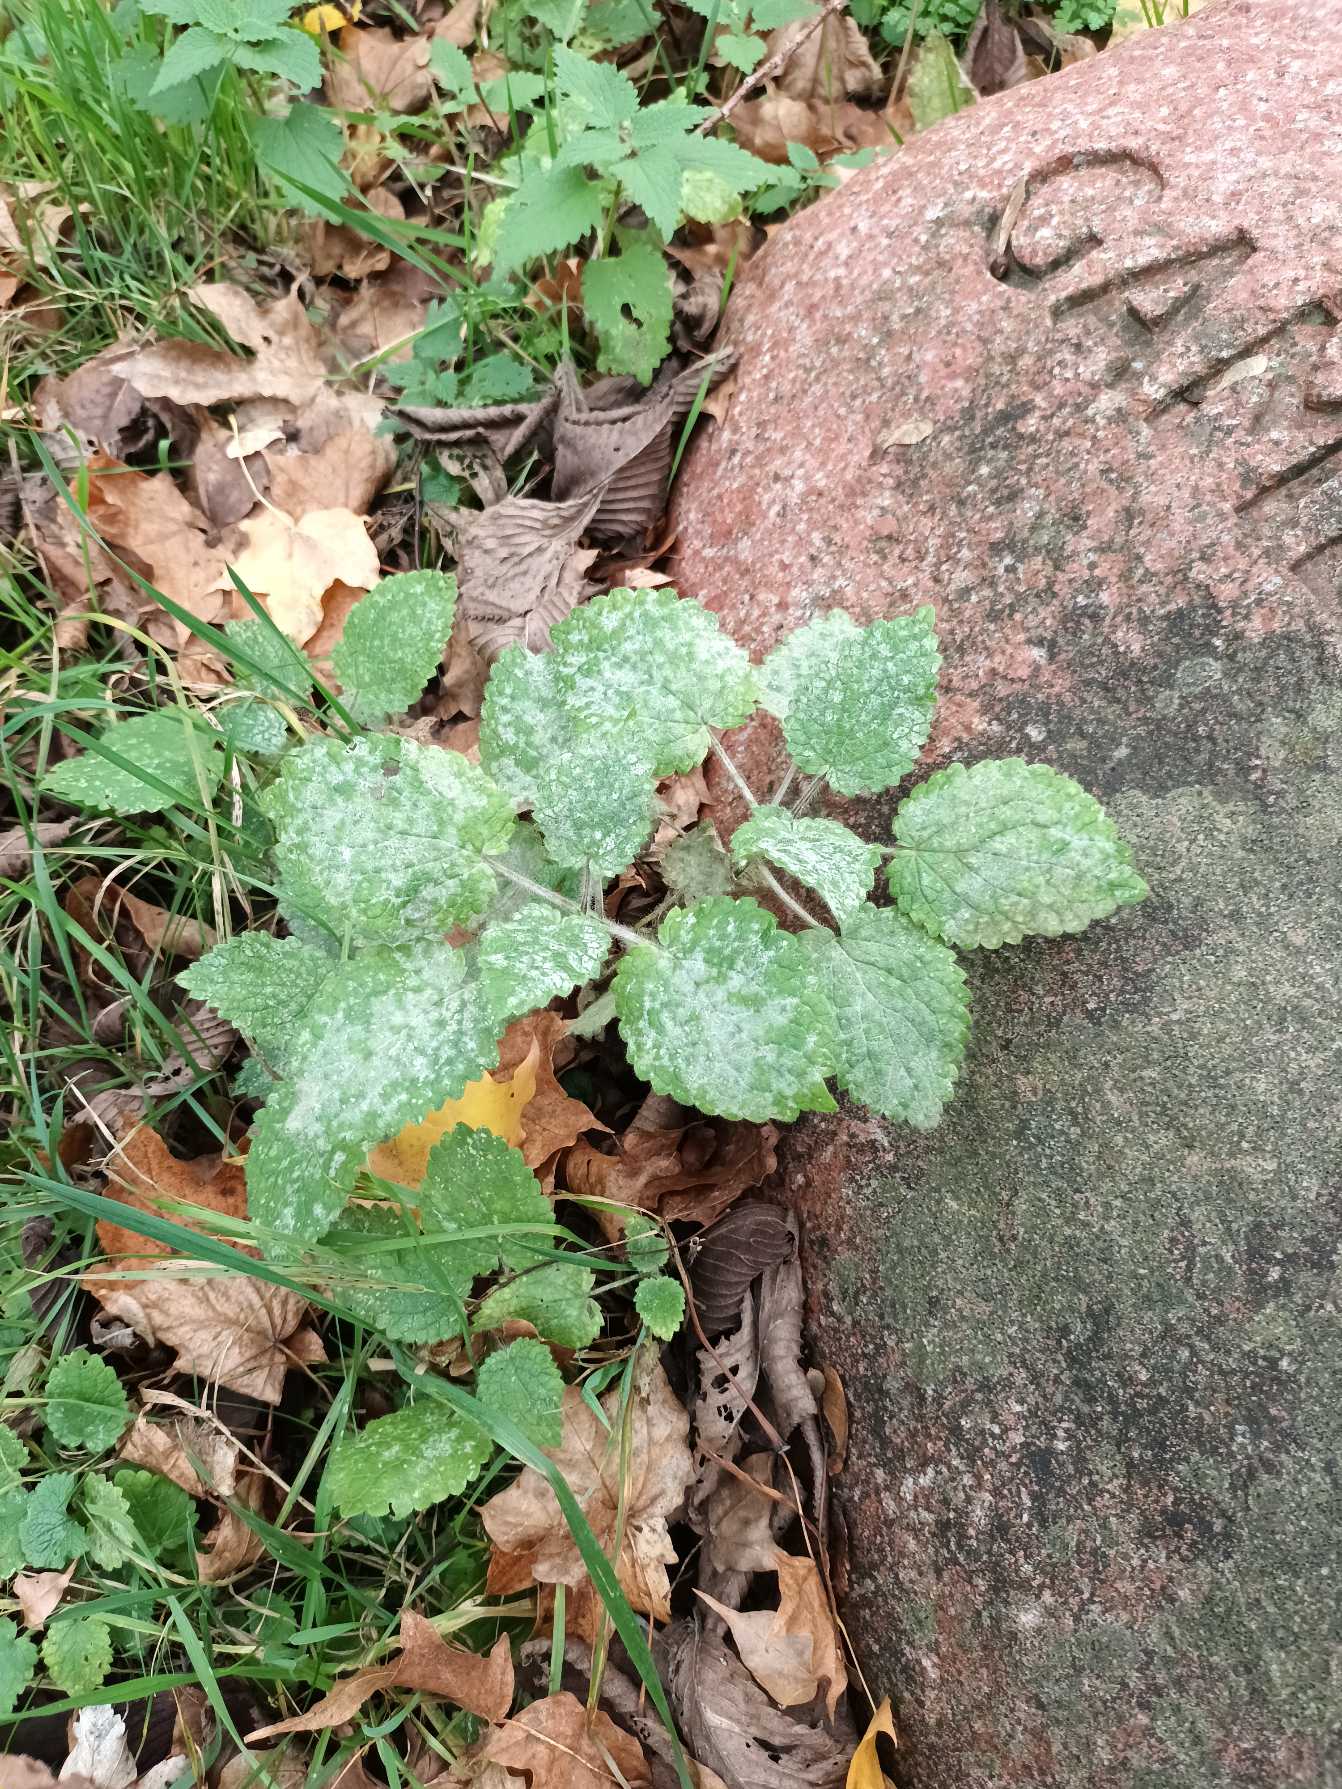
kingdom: Plantae
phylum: Tracheophyta
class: Magnoliopsida
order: Lamiales
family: Lamiaceae
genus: Stachys
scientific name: Stachys sylvatica
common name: Skov-galtetand
